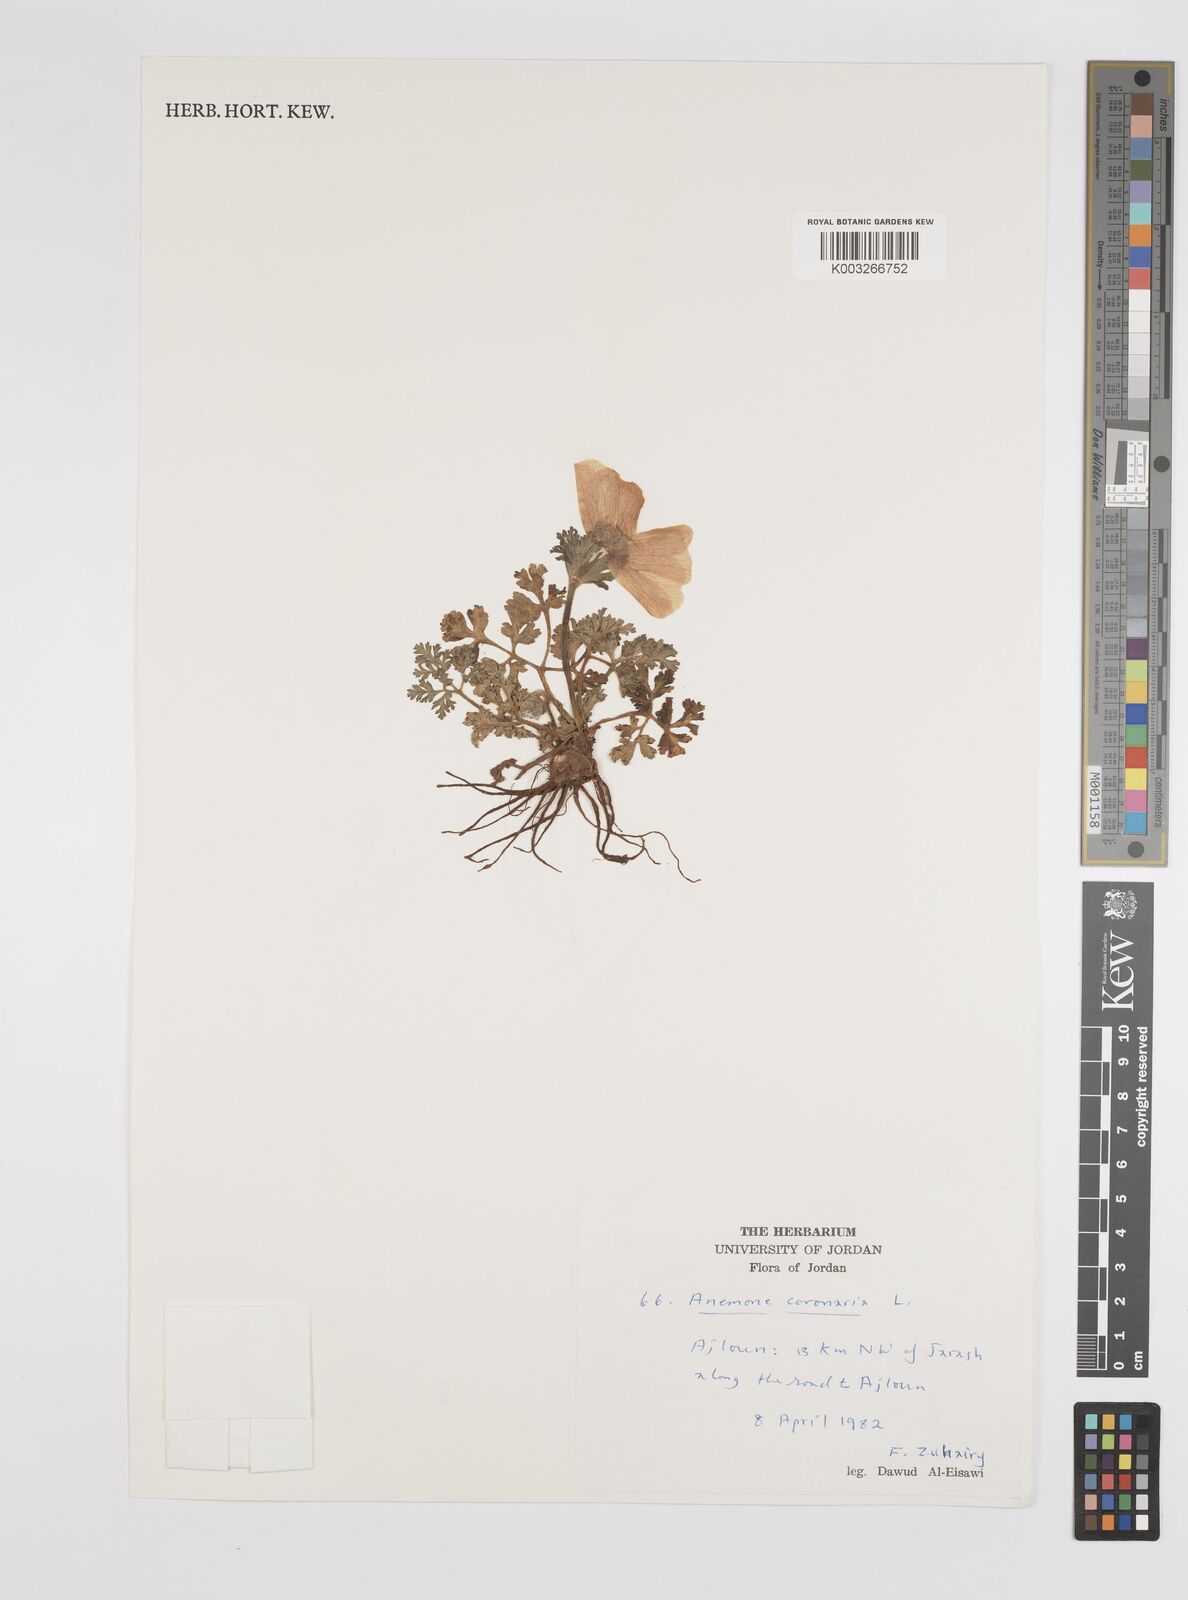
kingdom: Plantae
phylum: Tracheophyta
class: Magnoliopsida
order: Ranunculales
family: Ranunculaceae
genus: Anemone
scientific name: Anemone coronaria
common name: Poppy anemone
